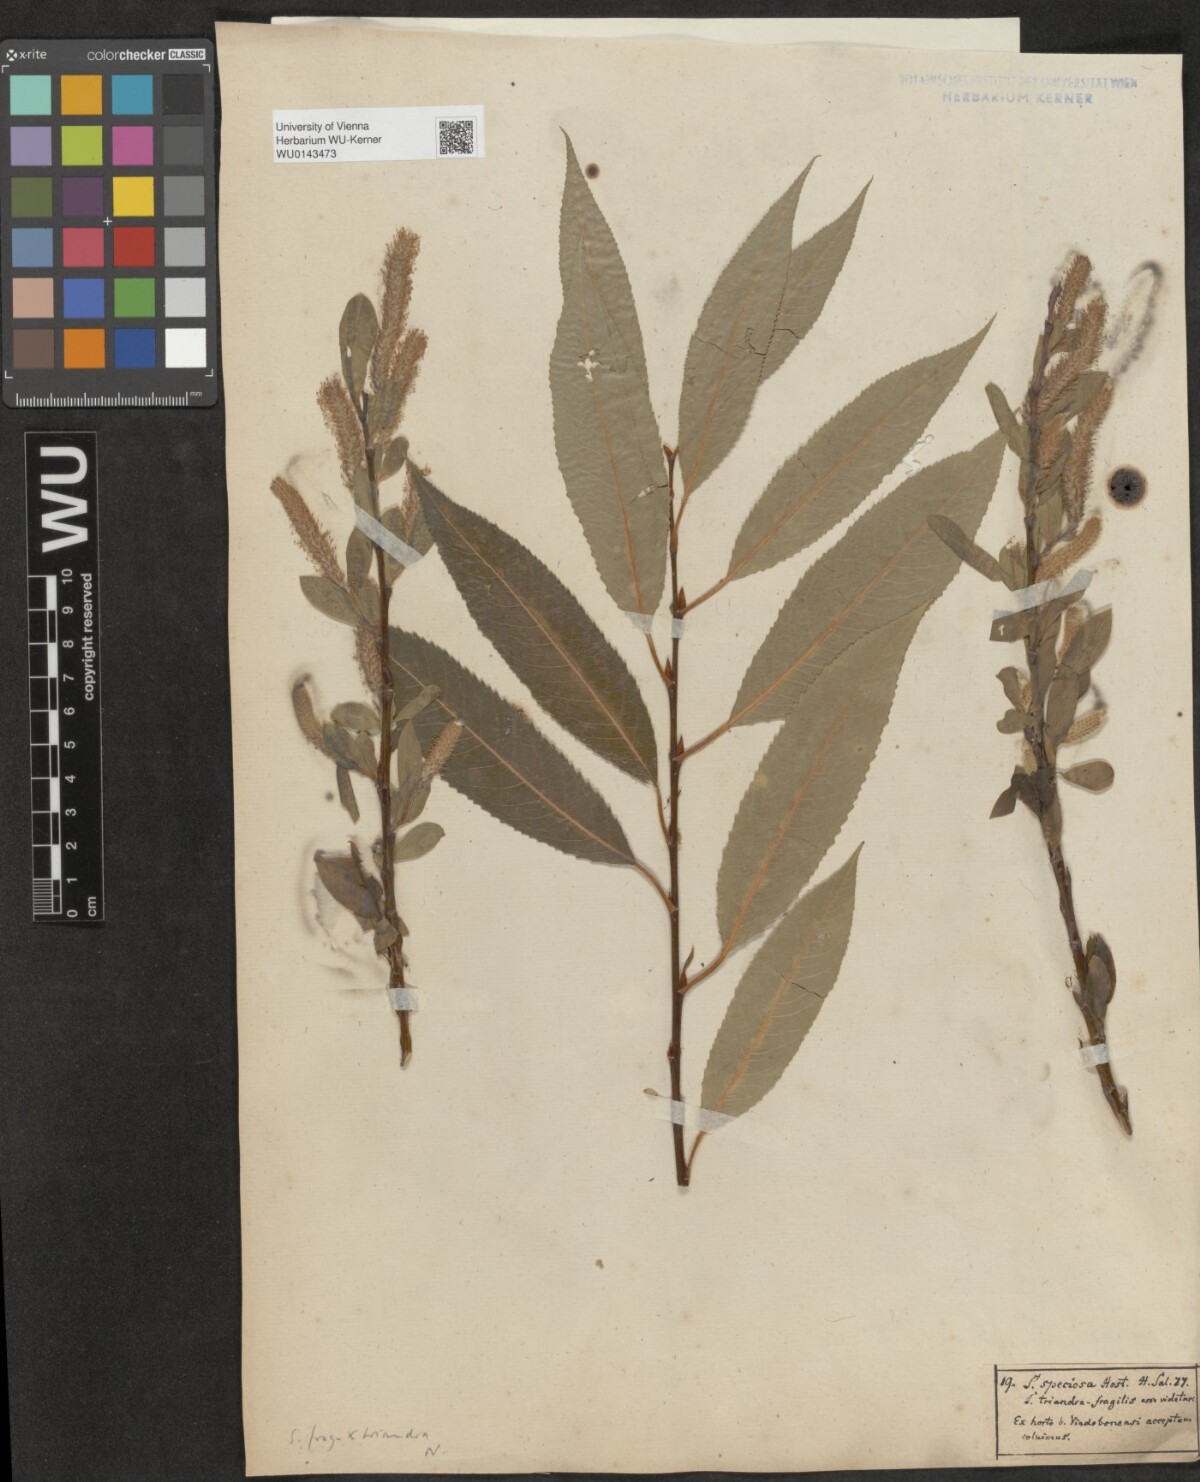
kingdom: Plantae
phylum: Tracheophyta
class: Magnoliopsida
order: Malpighiales
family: Salicaceae
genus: Salix
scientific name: Salix subtriandra
